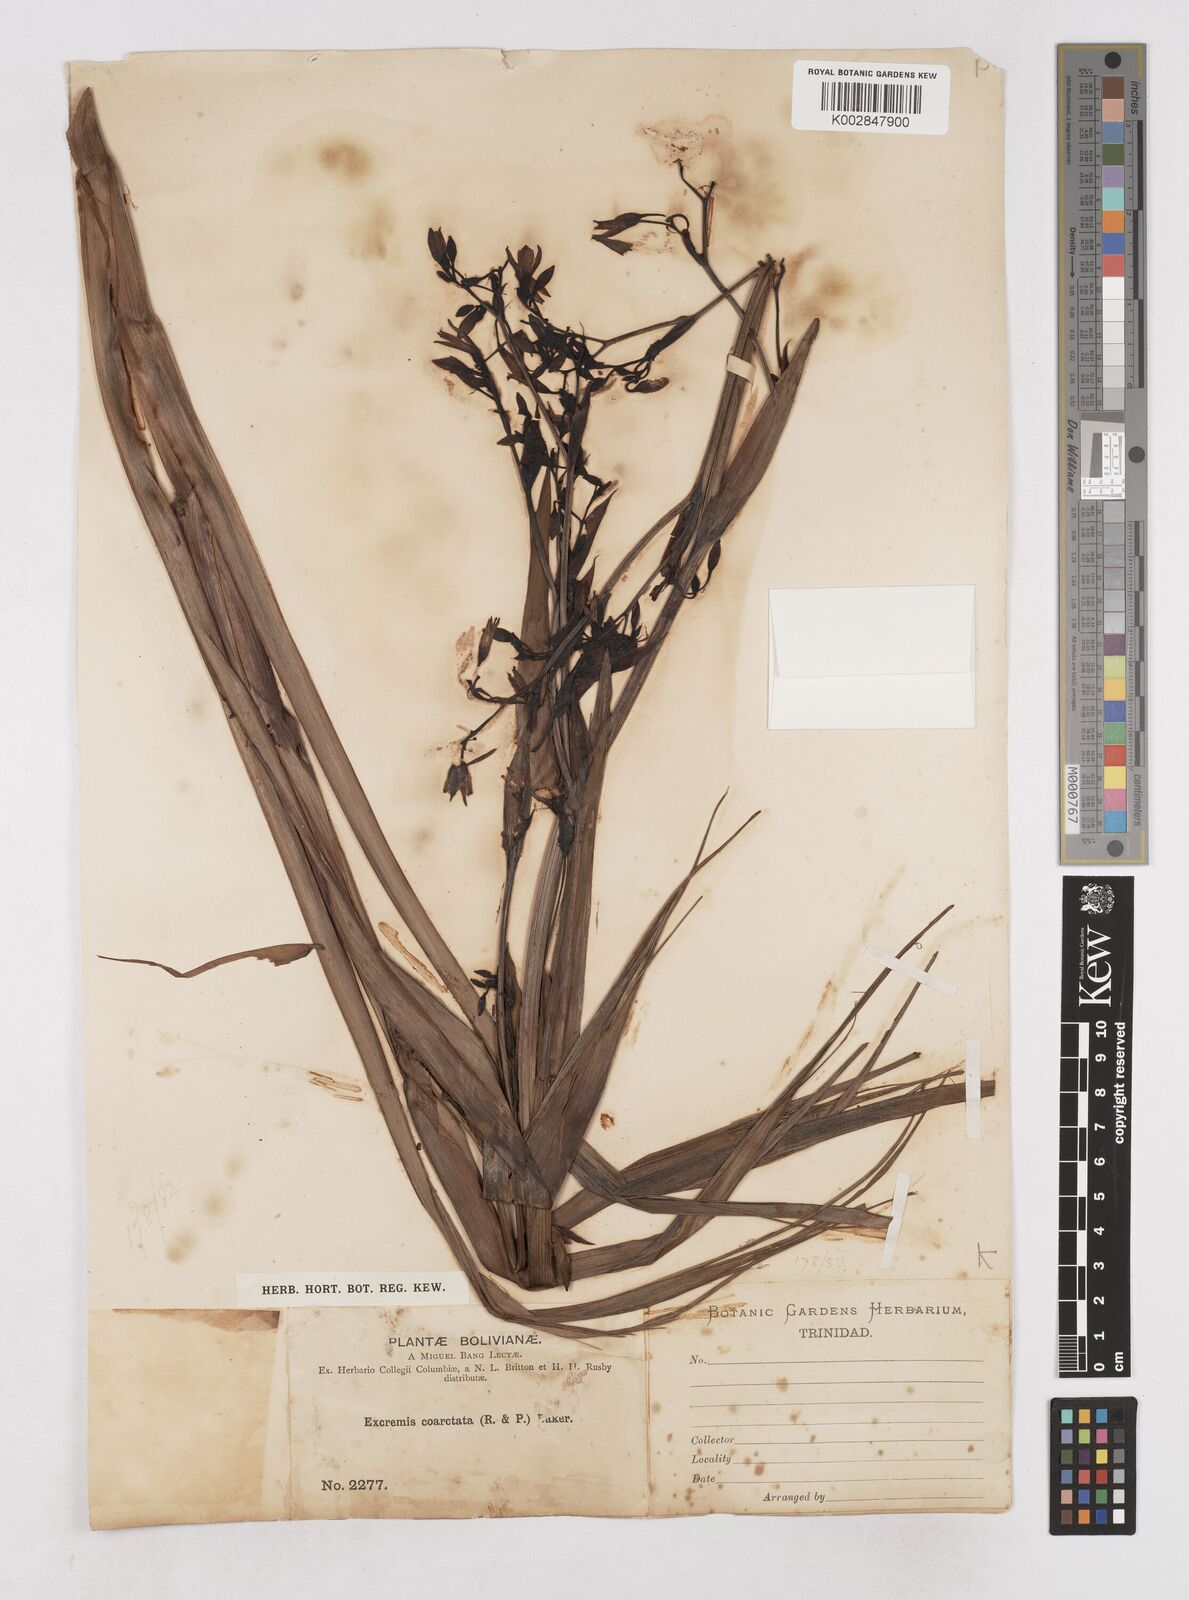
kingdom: Plantae
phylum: Tracheophyta
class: Liliopsida
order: Asparagales
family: Asphodelaceae
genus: Excremis
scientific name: Excremis coarctata
